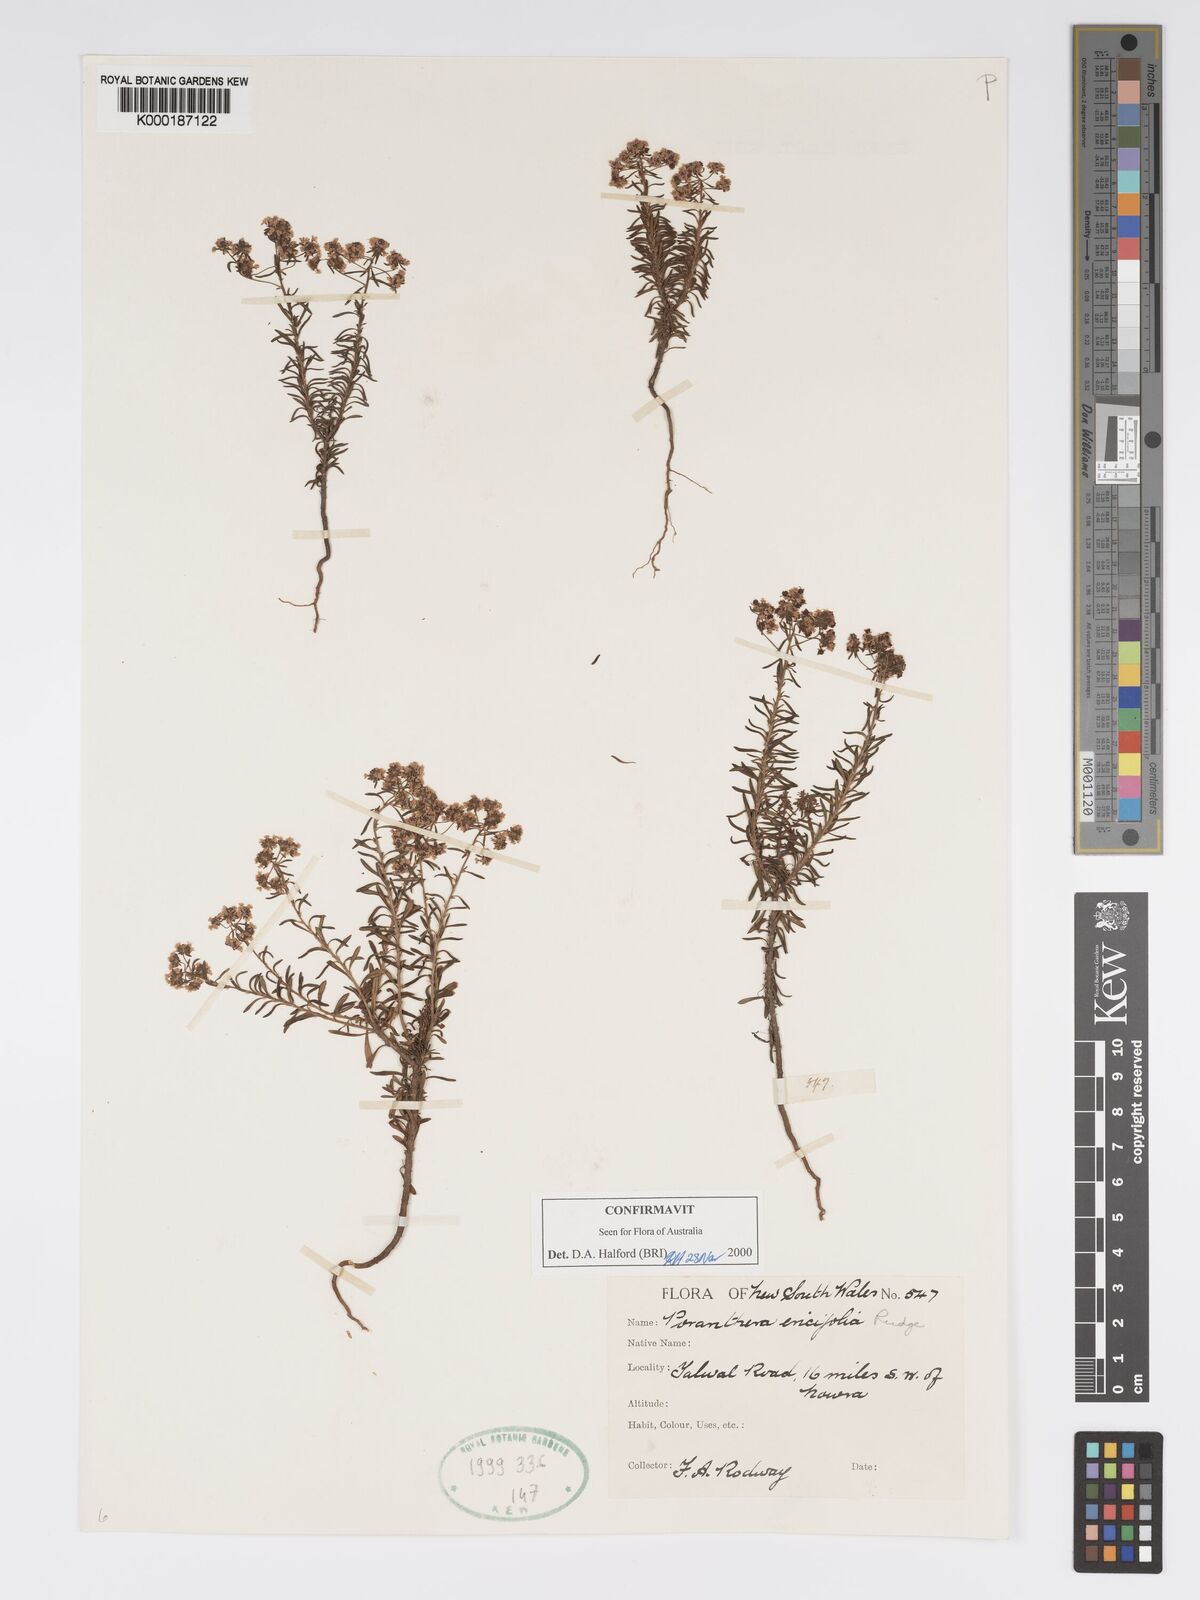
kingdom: Plantae
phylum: Tracheophyta
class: Magnoliopsida
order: Malpighiales
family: Phyllanthaceae
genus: Poranthera
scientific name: Poranthera ericifolia
